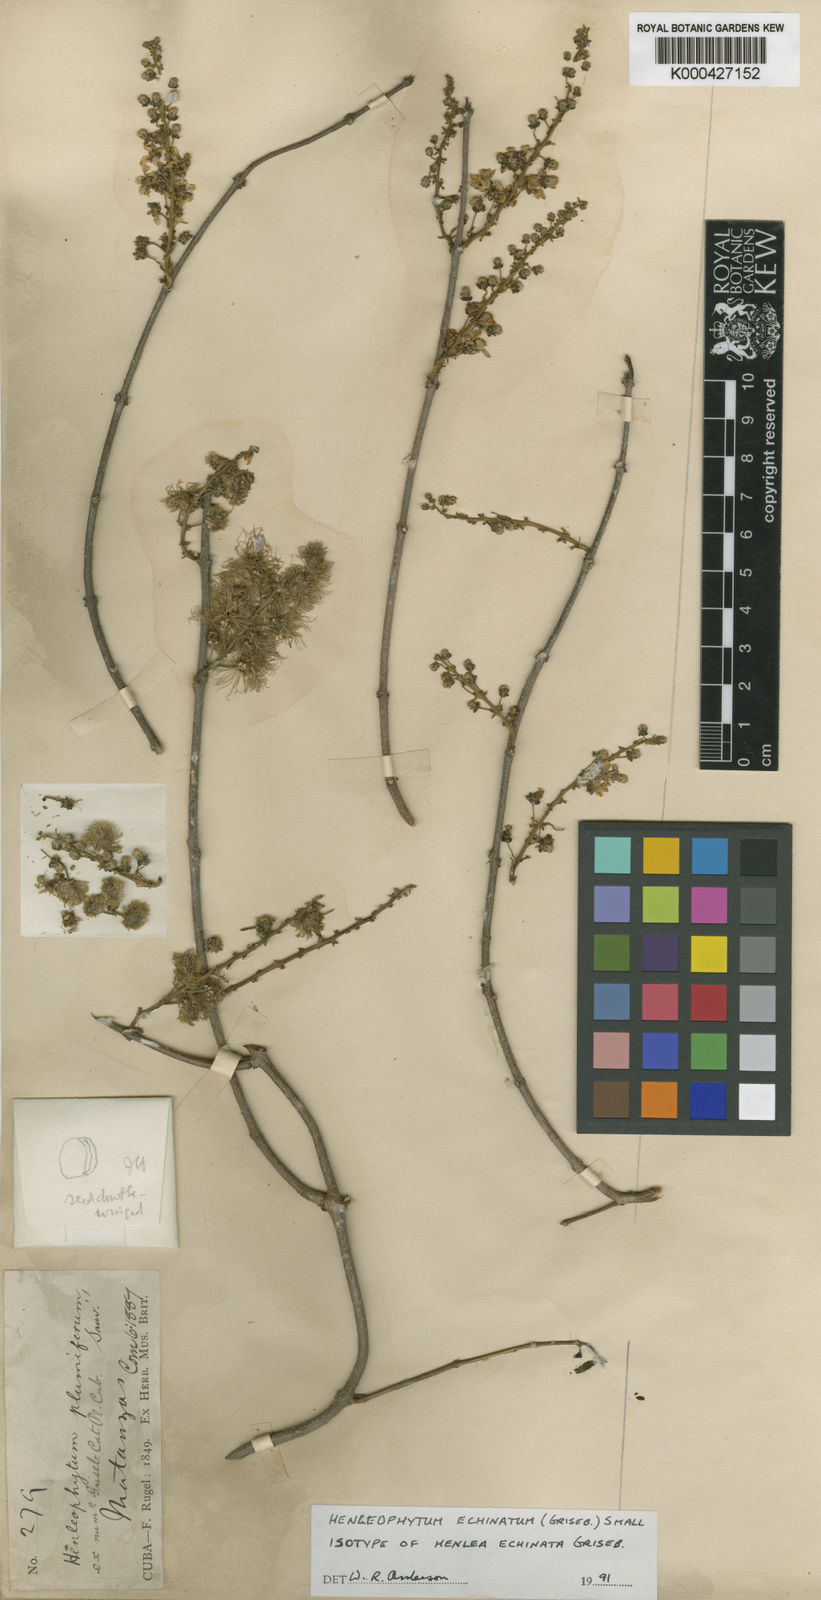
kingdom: Plantae
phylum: Tracheophyta
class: Magnoliopsida
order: Malpighiales
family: Malpighiaceae
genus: Henleophytum
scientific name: Henleophytum echinatum
